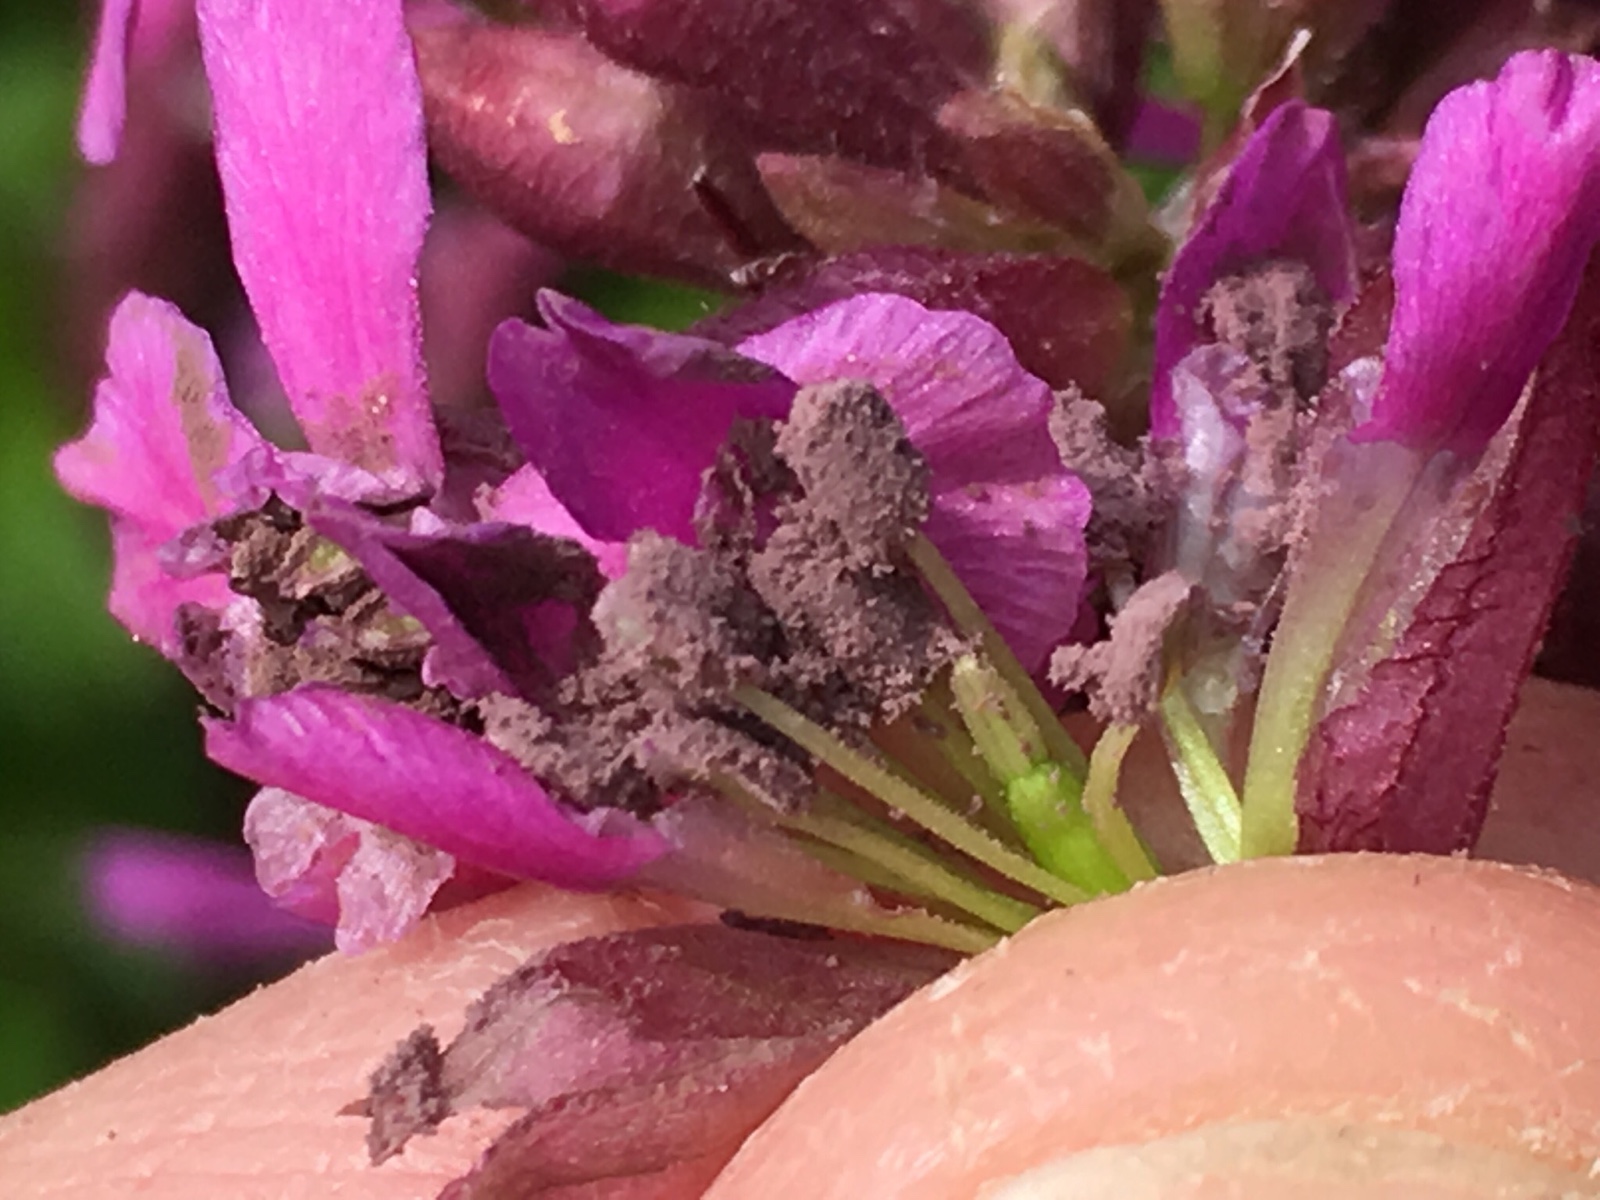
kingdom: Fungi
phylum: Basidiomycota
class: Microbotryomycetes
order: Microbotryales
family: Microbotryaceae
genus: Microbotryum
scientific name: Microbotryum silenes-inflatae
